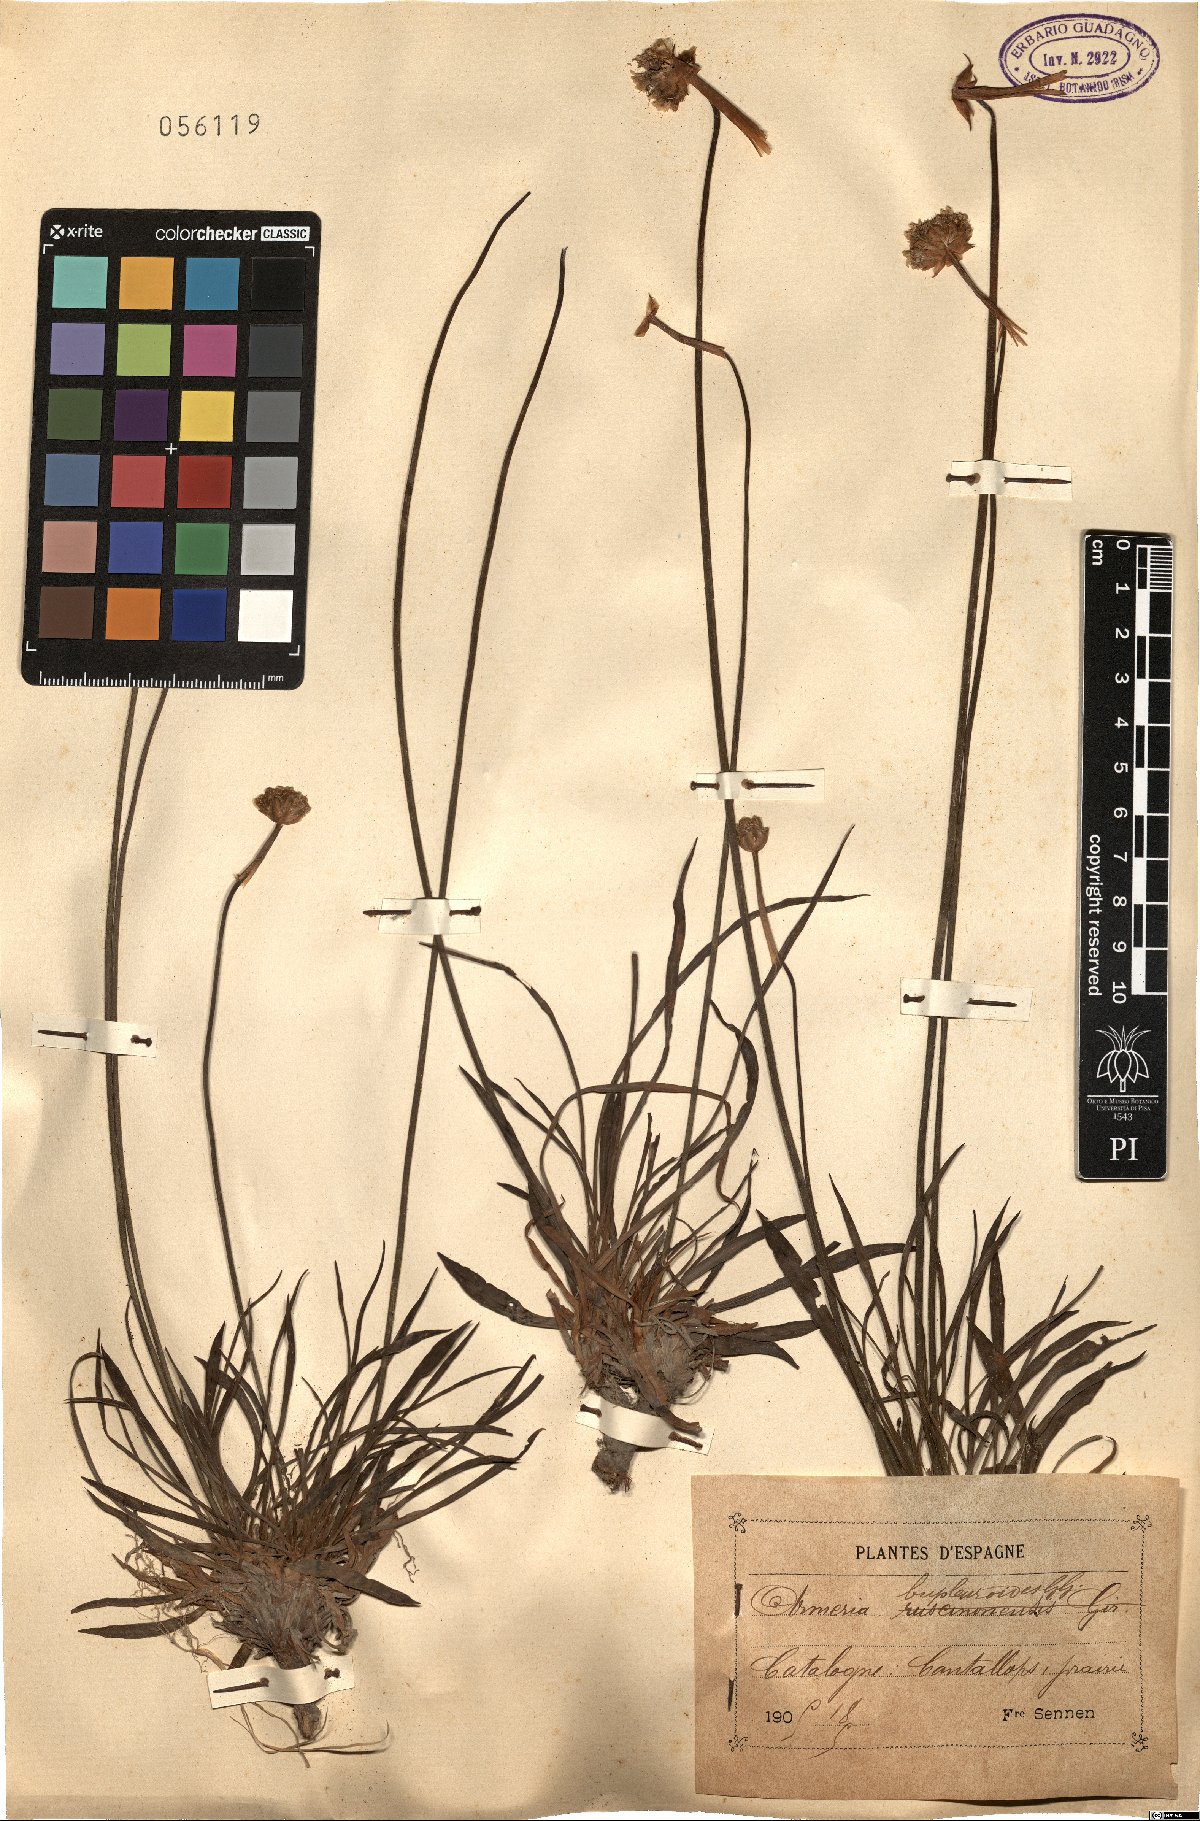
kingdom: Plantae
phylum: Tracheophyta
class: Magnoliopsida
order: Caryophyllales
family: Plumbaginaceae
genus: Armeria
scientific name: Armeria arenaria
